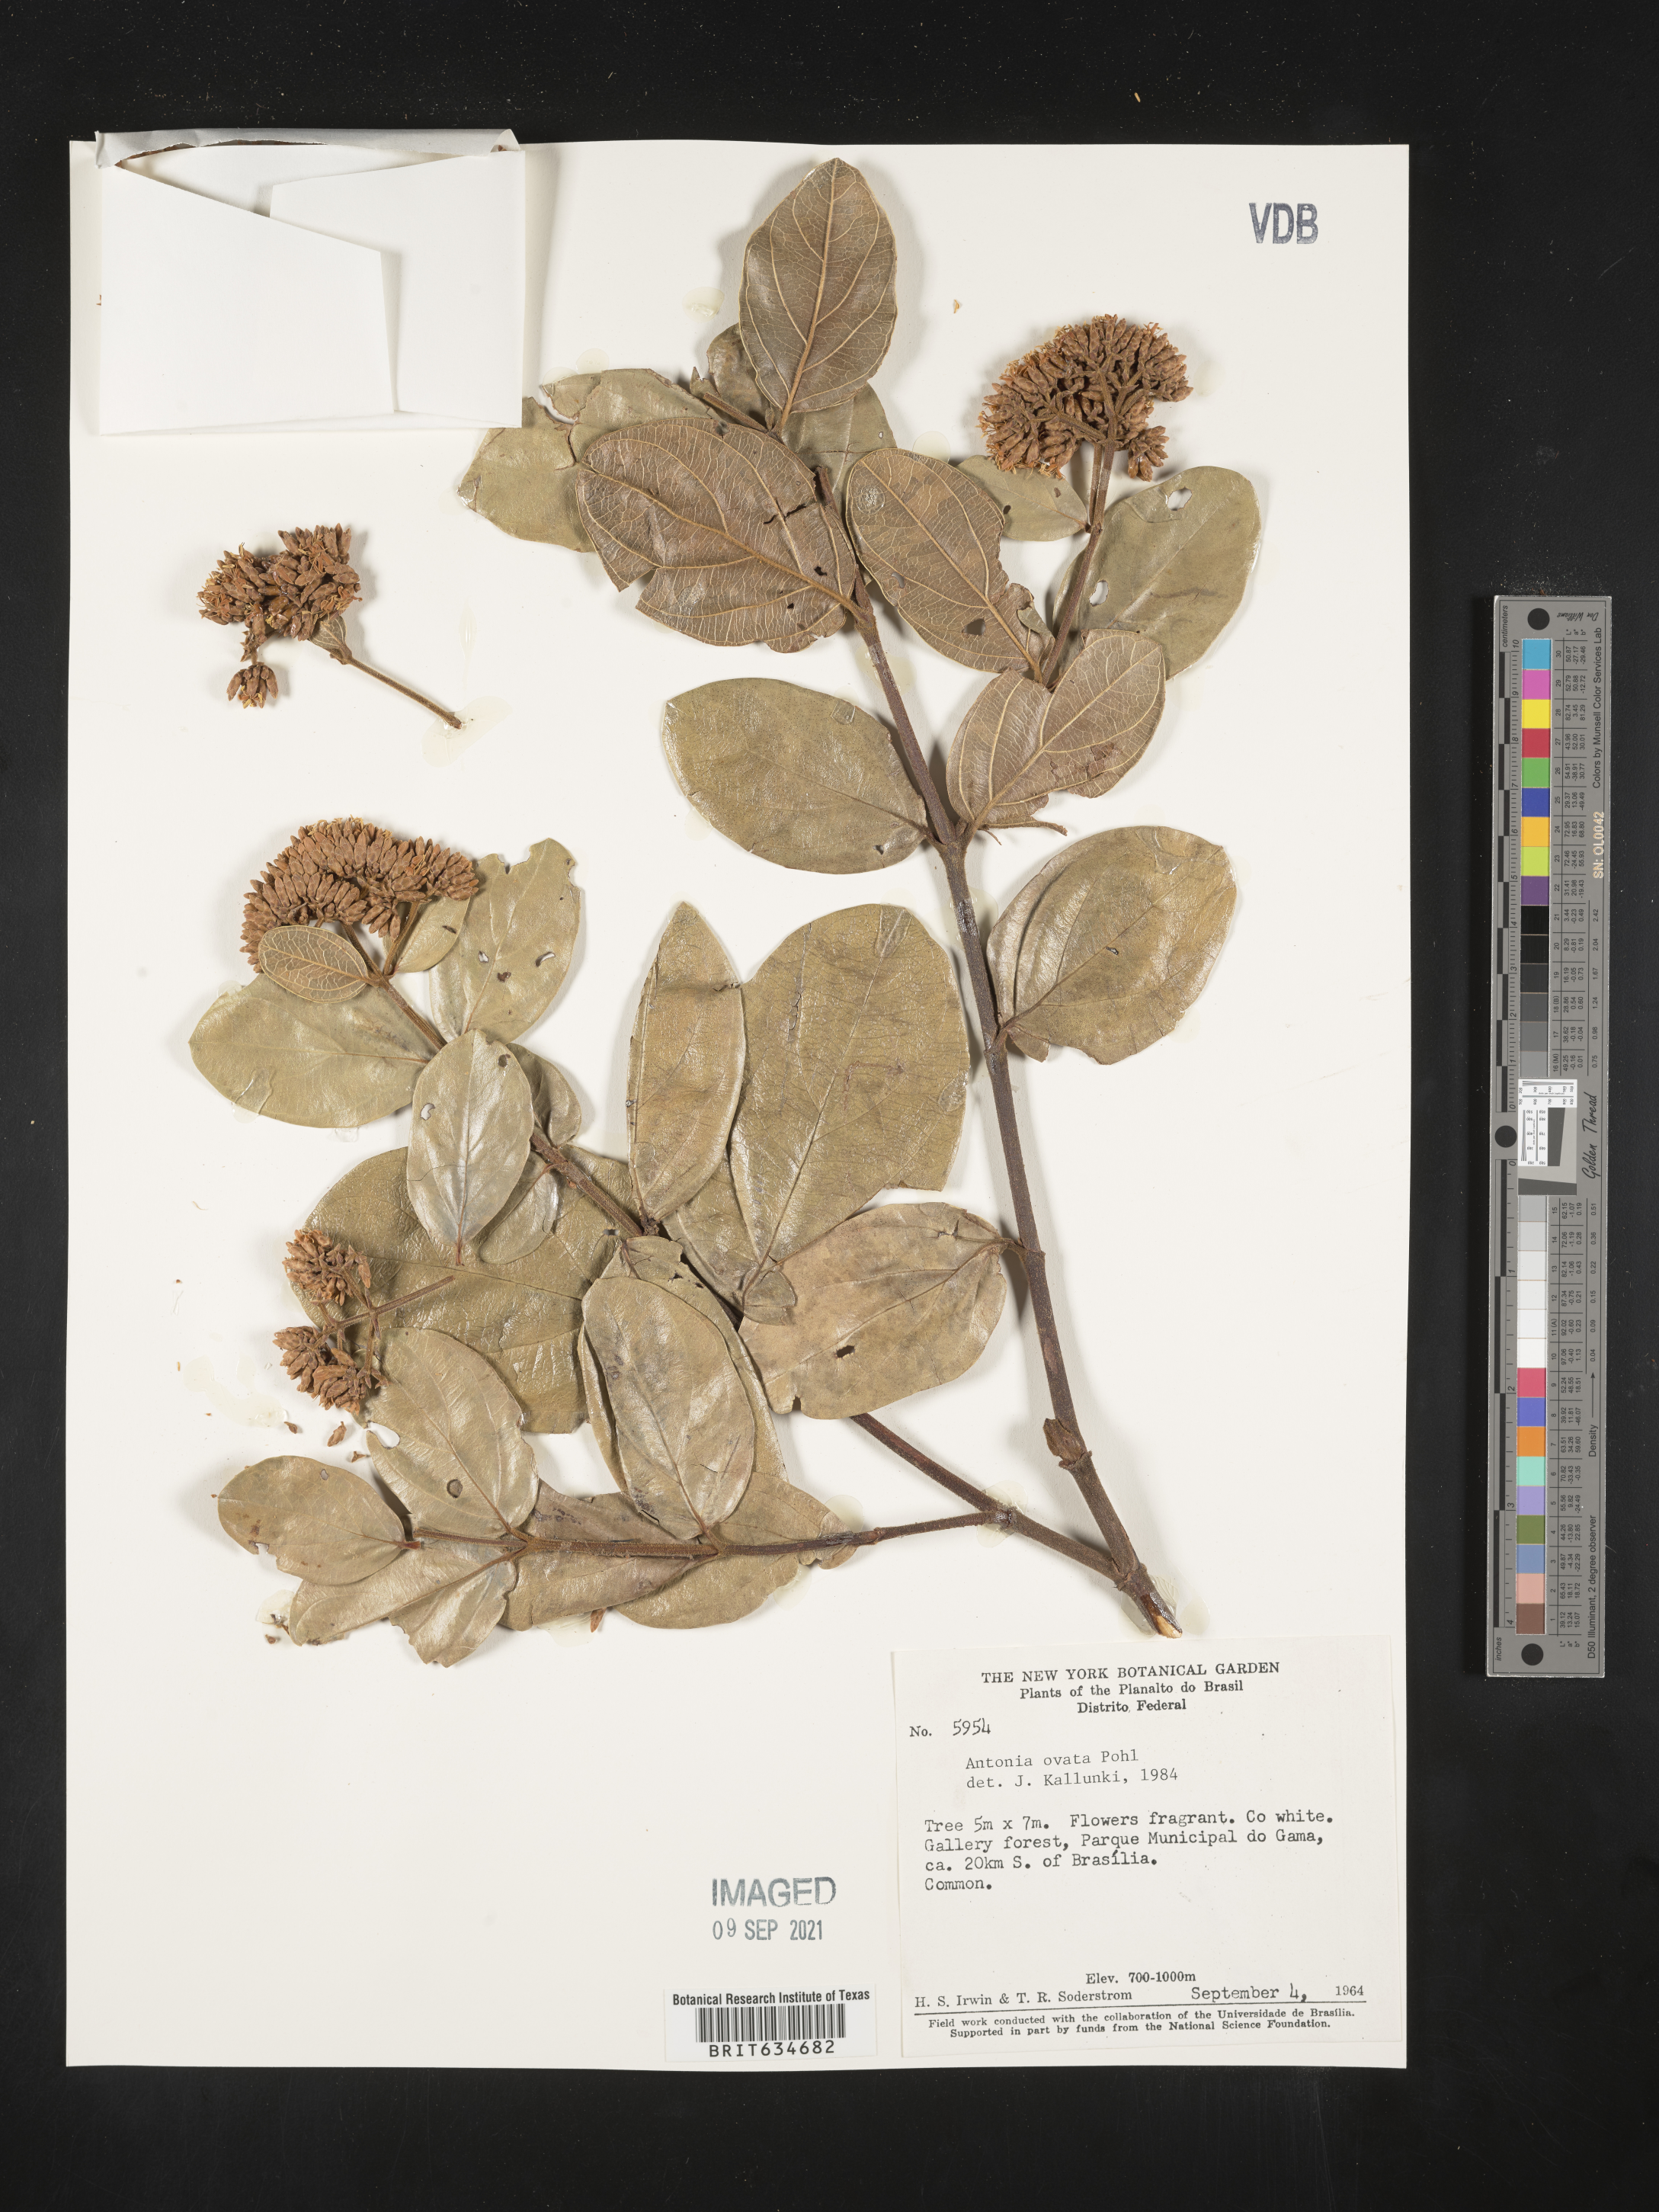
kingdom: Plantae
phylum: Tracheophyta
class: Magnoliopsida
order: Gentianales
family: Loganiaceae
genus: Antonia
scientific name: Antonia
